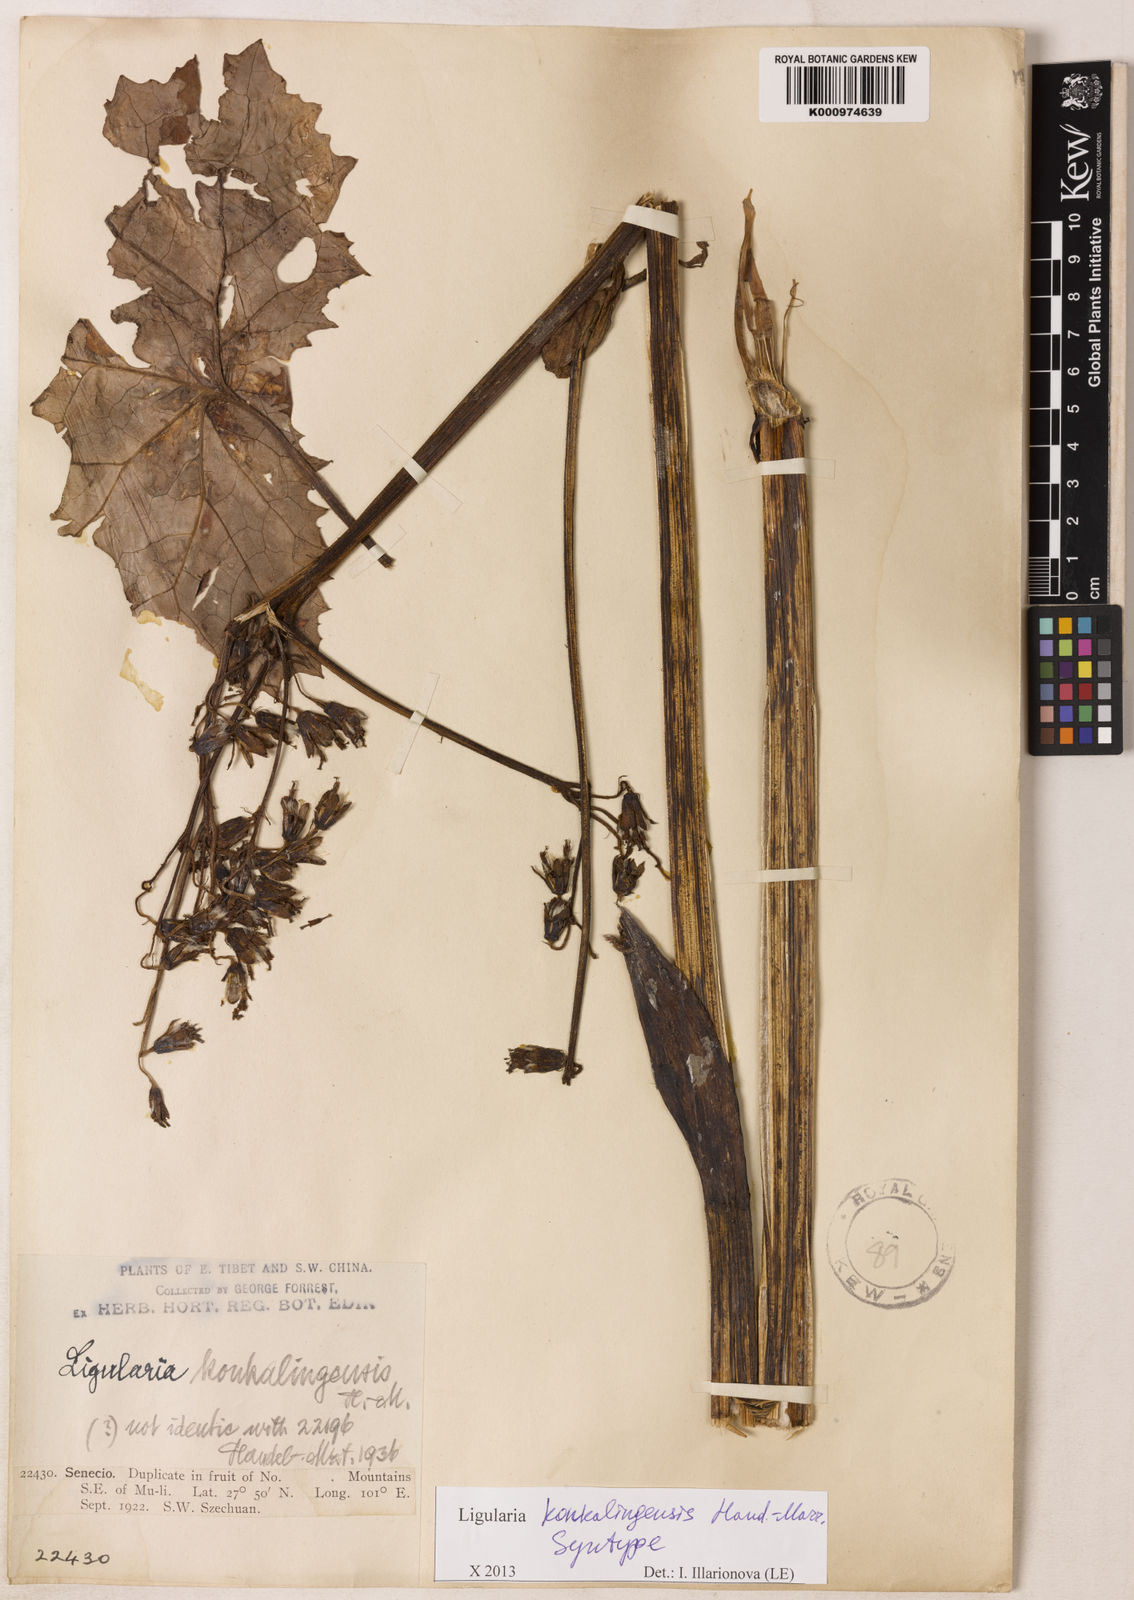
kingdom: Plantae
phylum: Tracheophyta
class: Magnoliopsida
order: Asterales
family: Asteraceae
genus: Ligularia
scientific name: Ligularia konkalingensis
